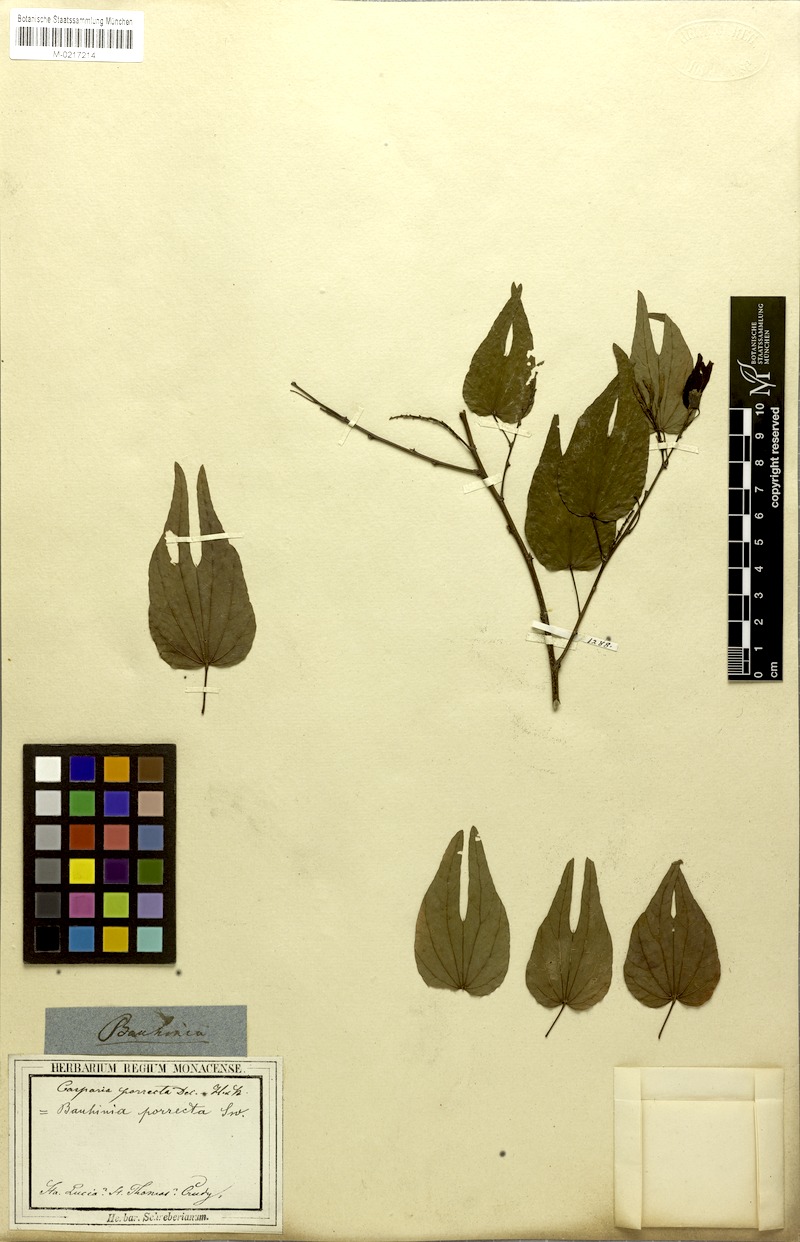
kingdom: Plantae
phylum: Tracheophyta
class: Magnoliopsida
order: Fabales
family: Fabaceae
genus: Bauhinia
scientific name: Bauhinia divaricata
